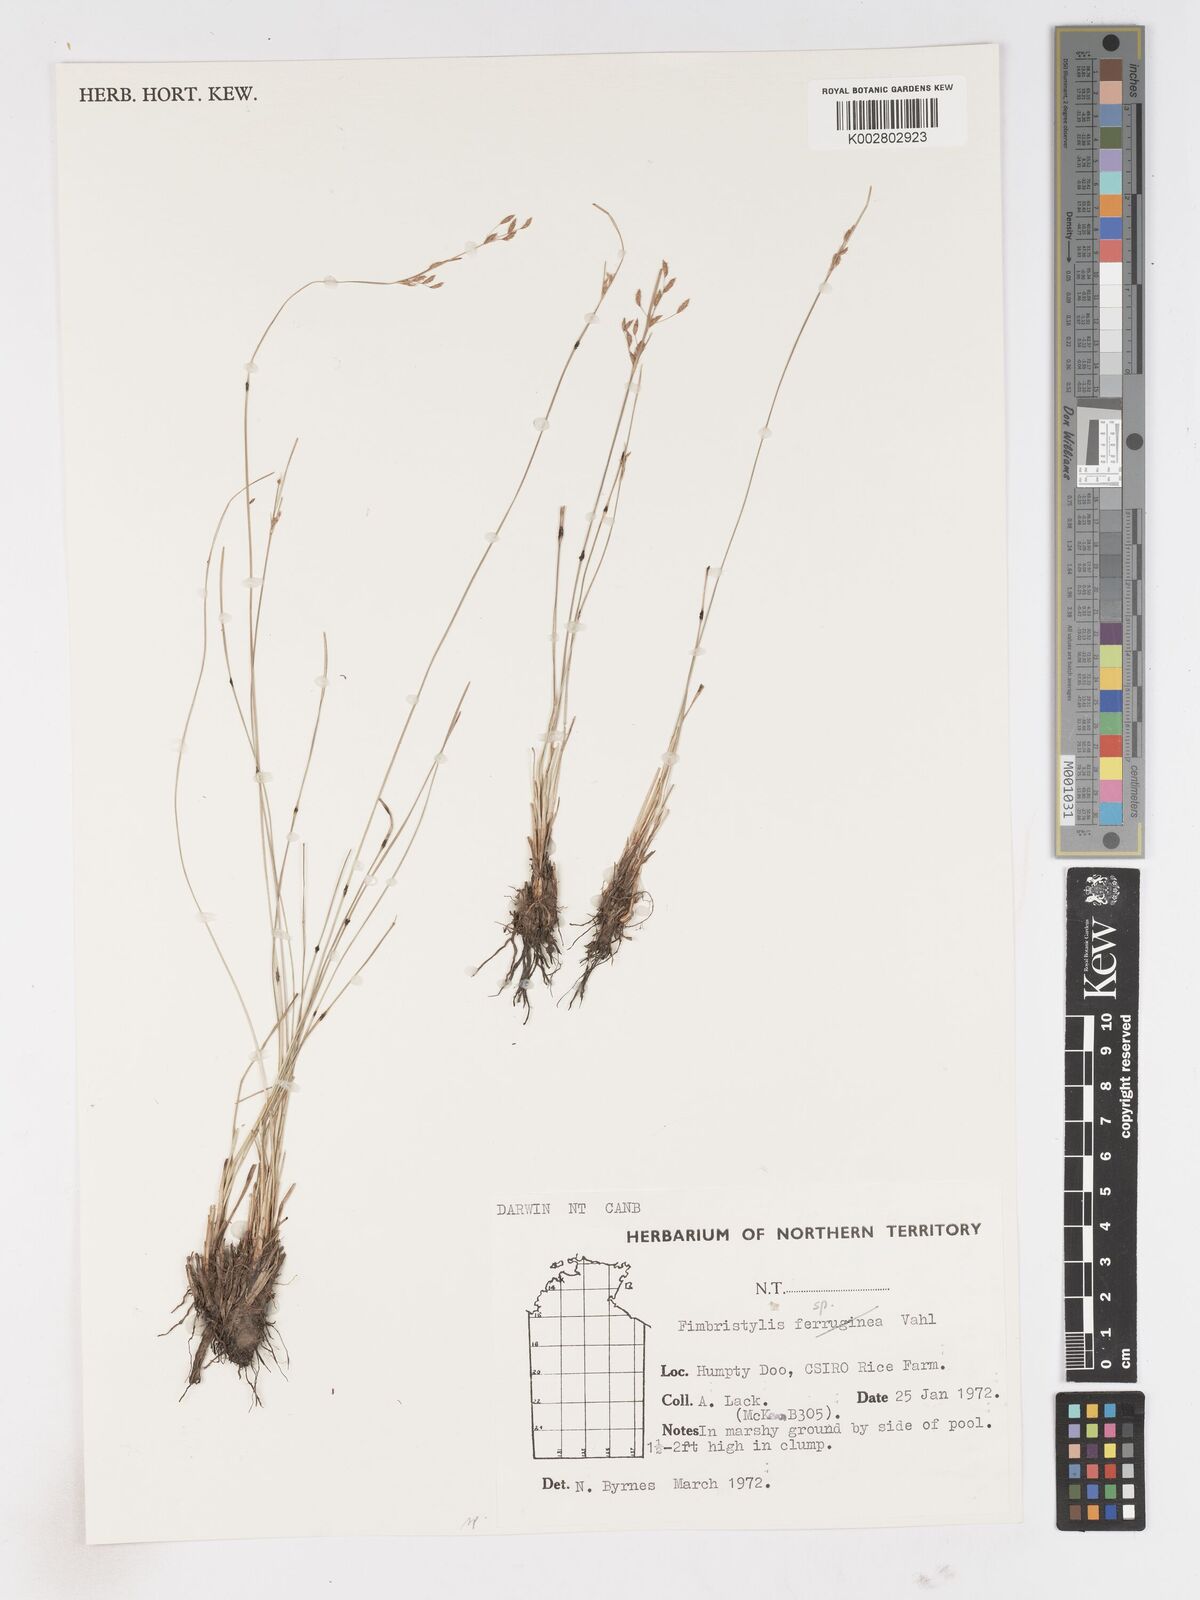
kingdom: Plantae
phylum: Tracheophyta
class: Liliopsida
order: Poales
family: Cyperaceae
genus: Fimbristylis
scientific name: Fimbristylis
